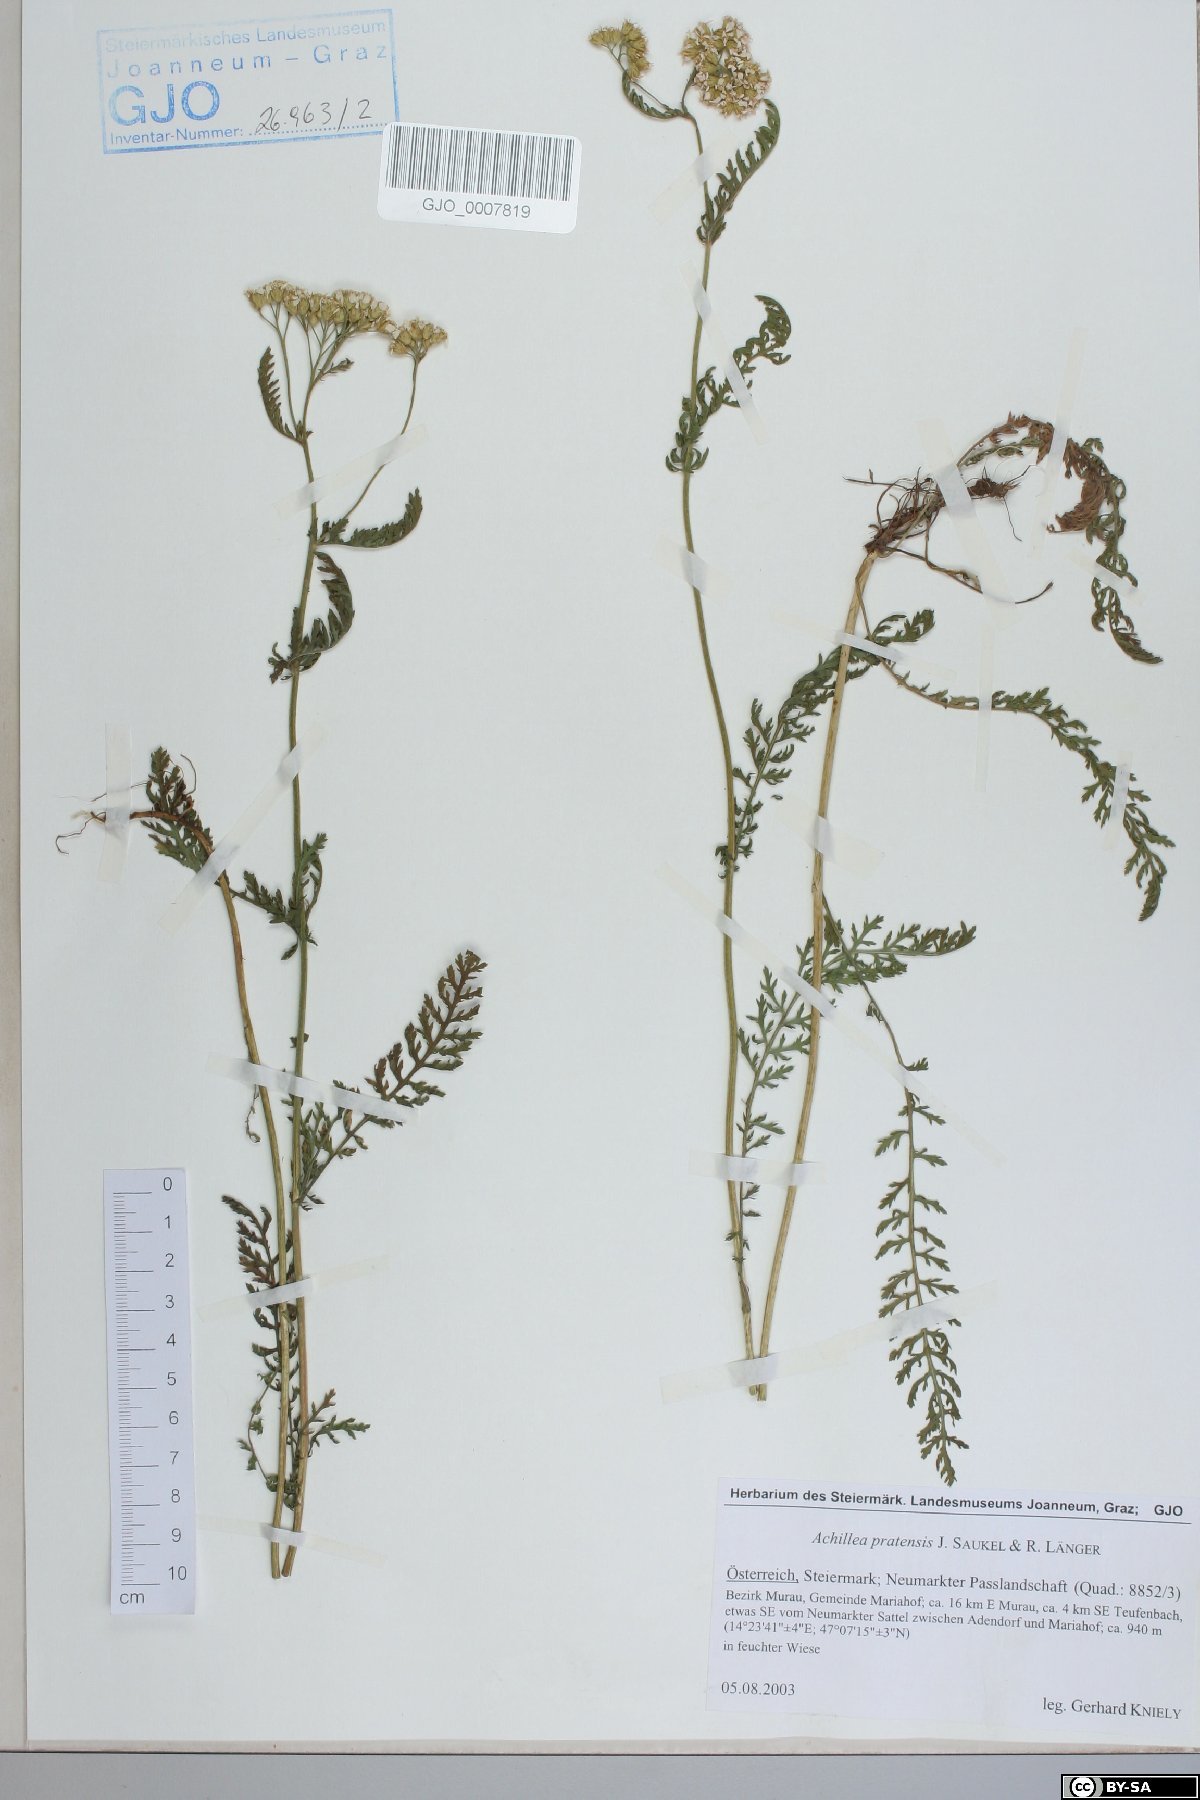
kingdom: Plantae
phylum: Tracheophyta
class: Magnoliopsida
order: Asterales
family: Asteraceae
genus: Achillea
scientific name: Achillea pratensis
